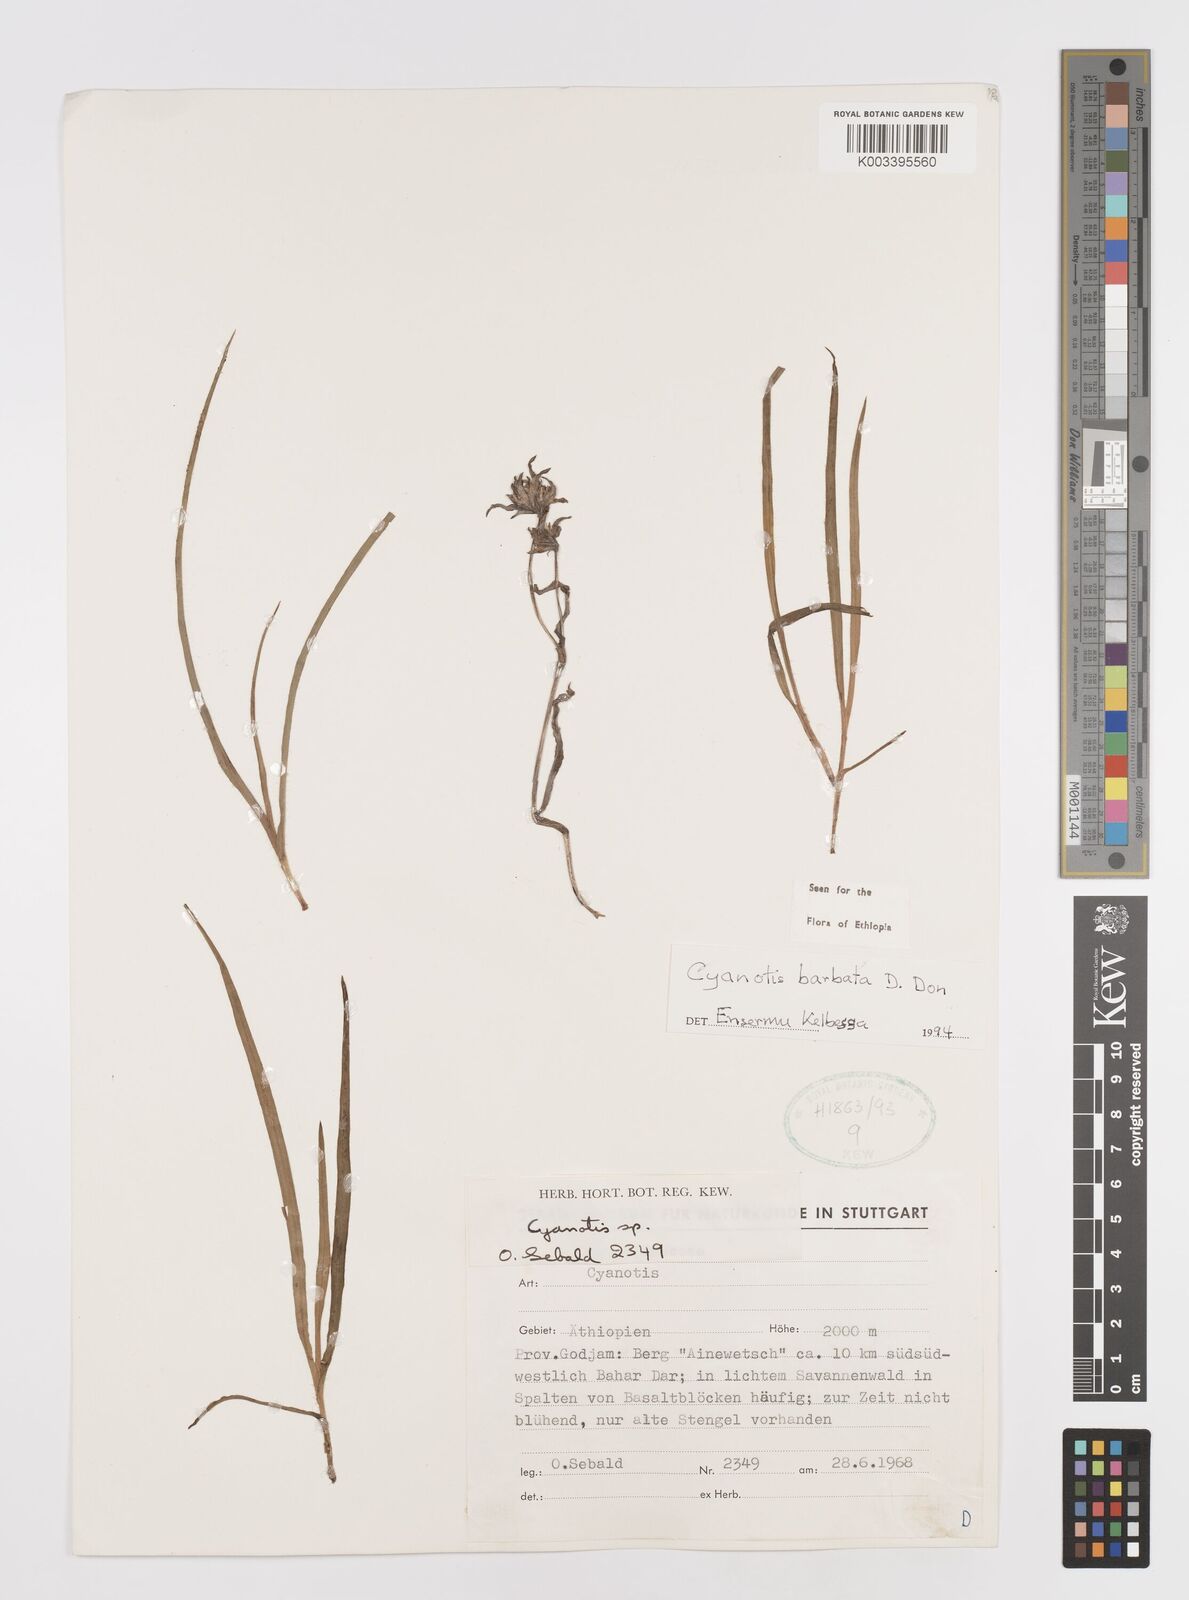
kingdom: Plantae
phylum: Tracheophyta
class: Liliopsida
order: Commelinales
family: Commelinaceae
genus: Cyanotis
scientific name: Cyanotis vaga
